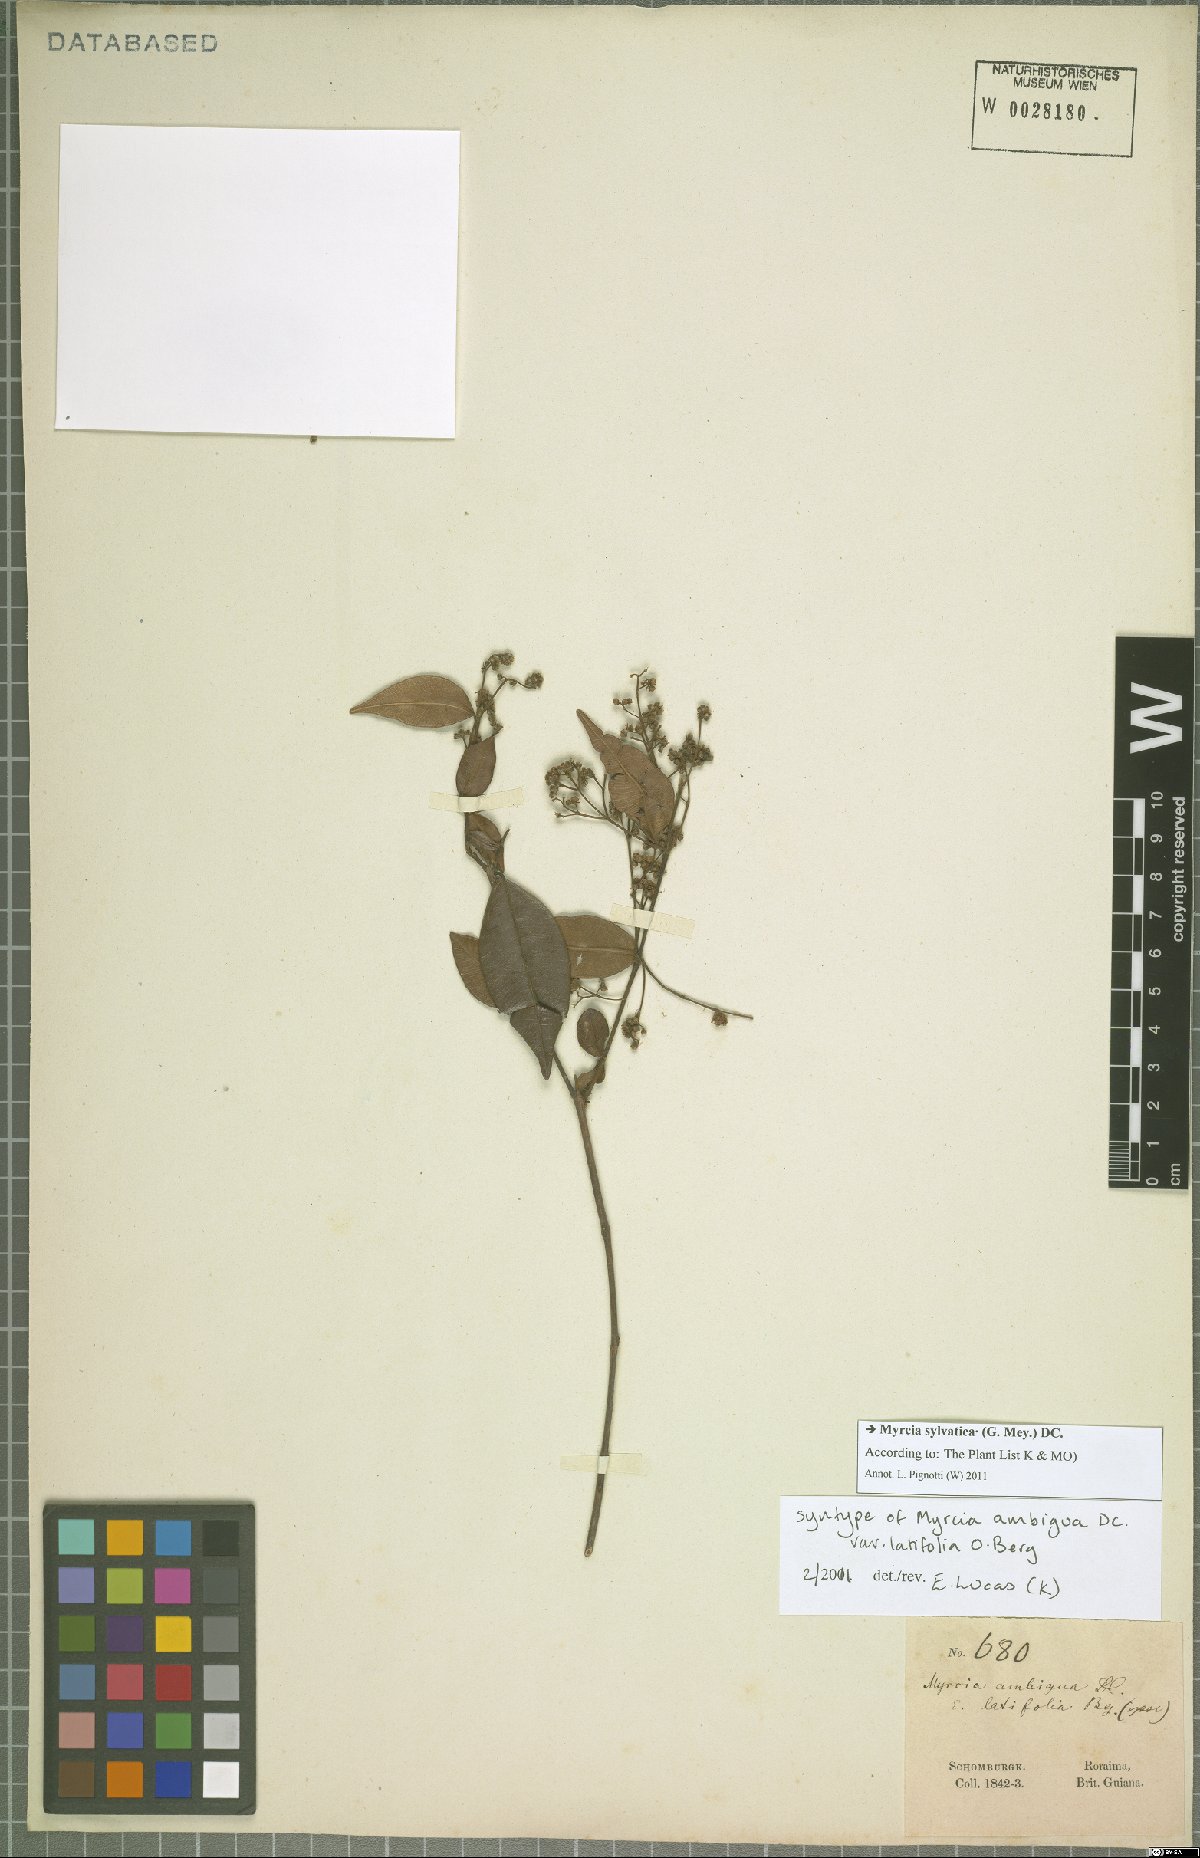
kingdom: Plantae
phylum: Tracheophyta
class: Magnoliopsida
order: Myrtales
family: Myrtaceae
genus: Myrcia
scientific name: Myrcia sylvatica
